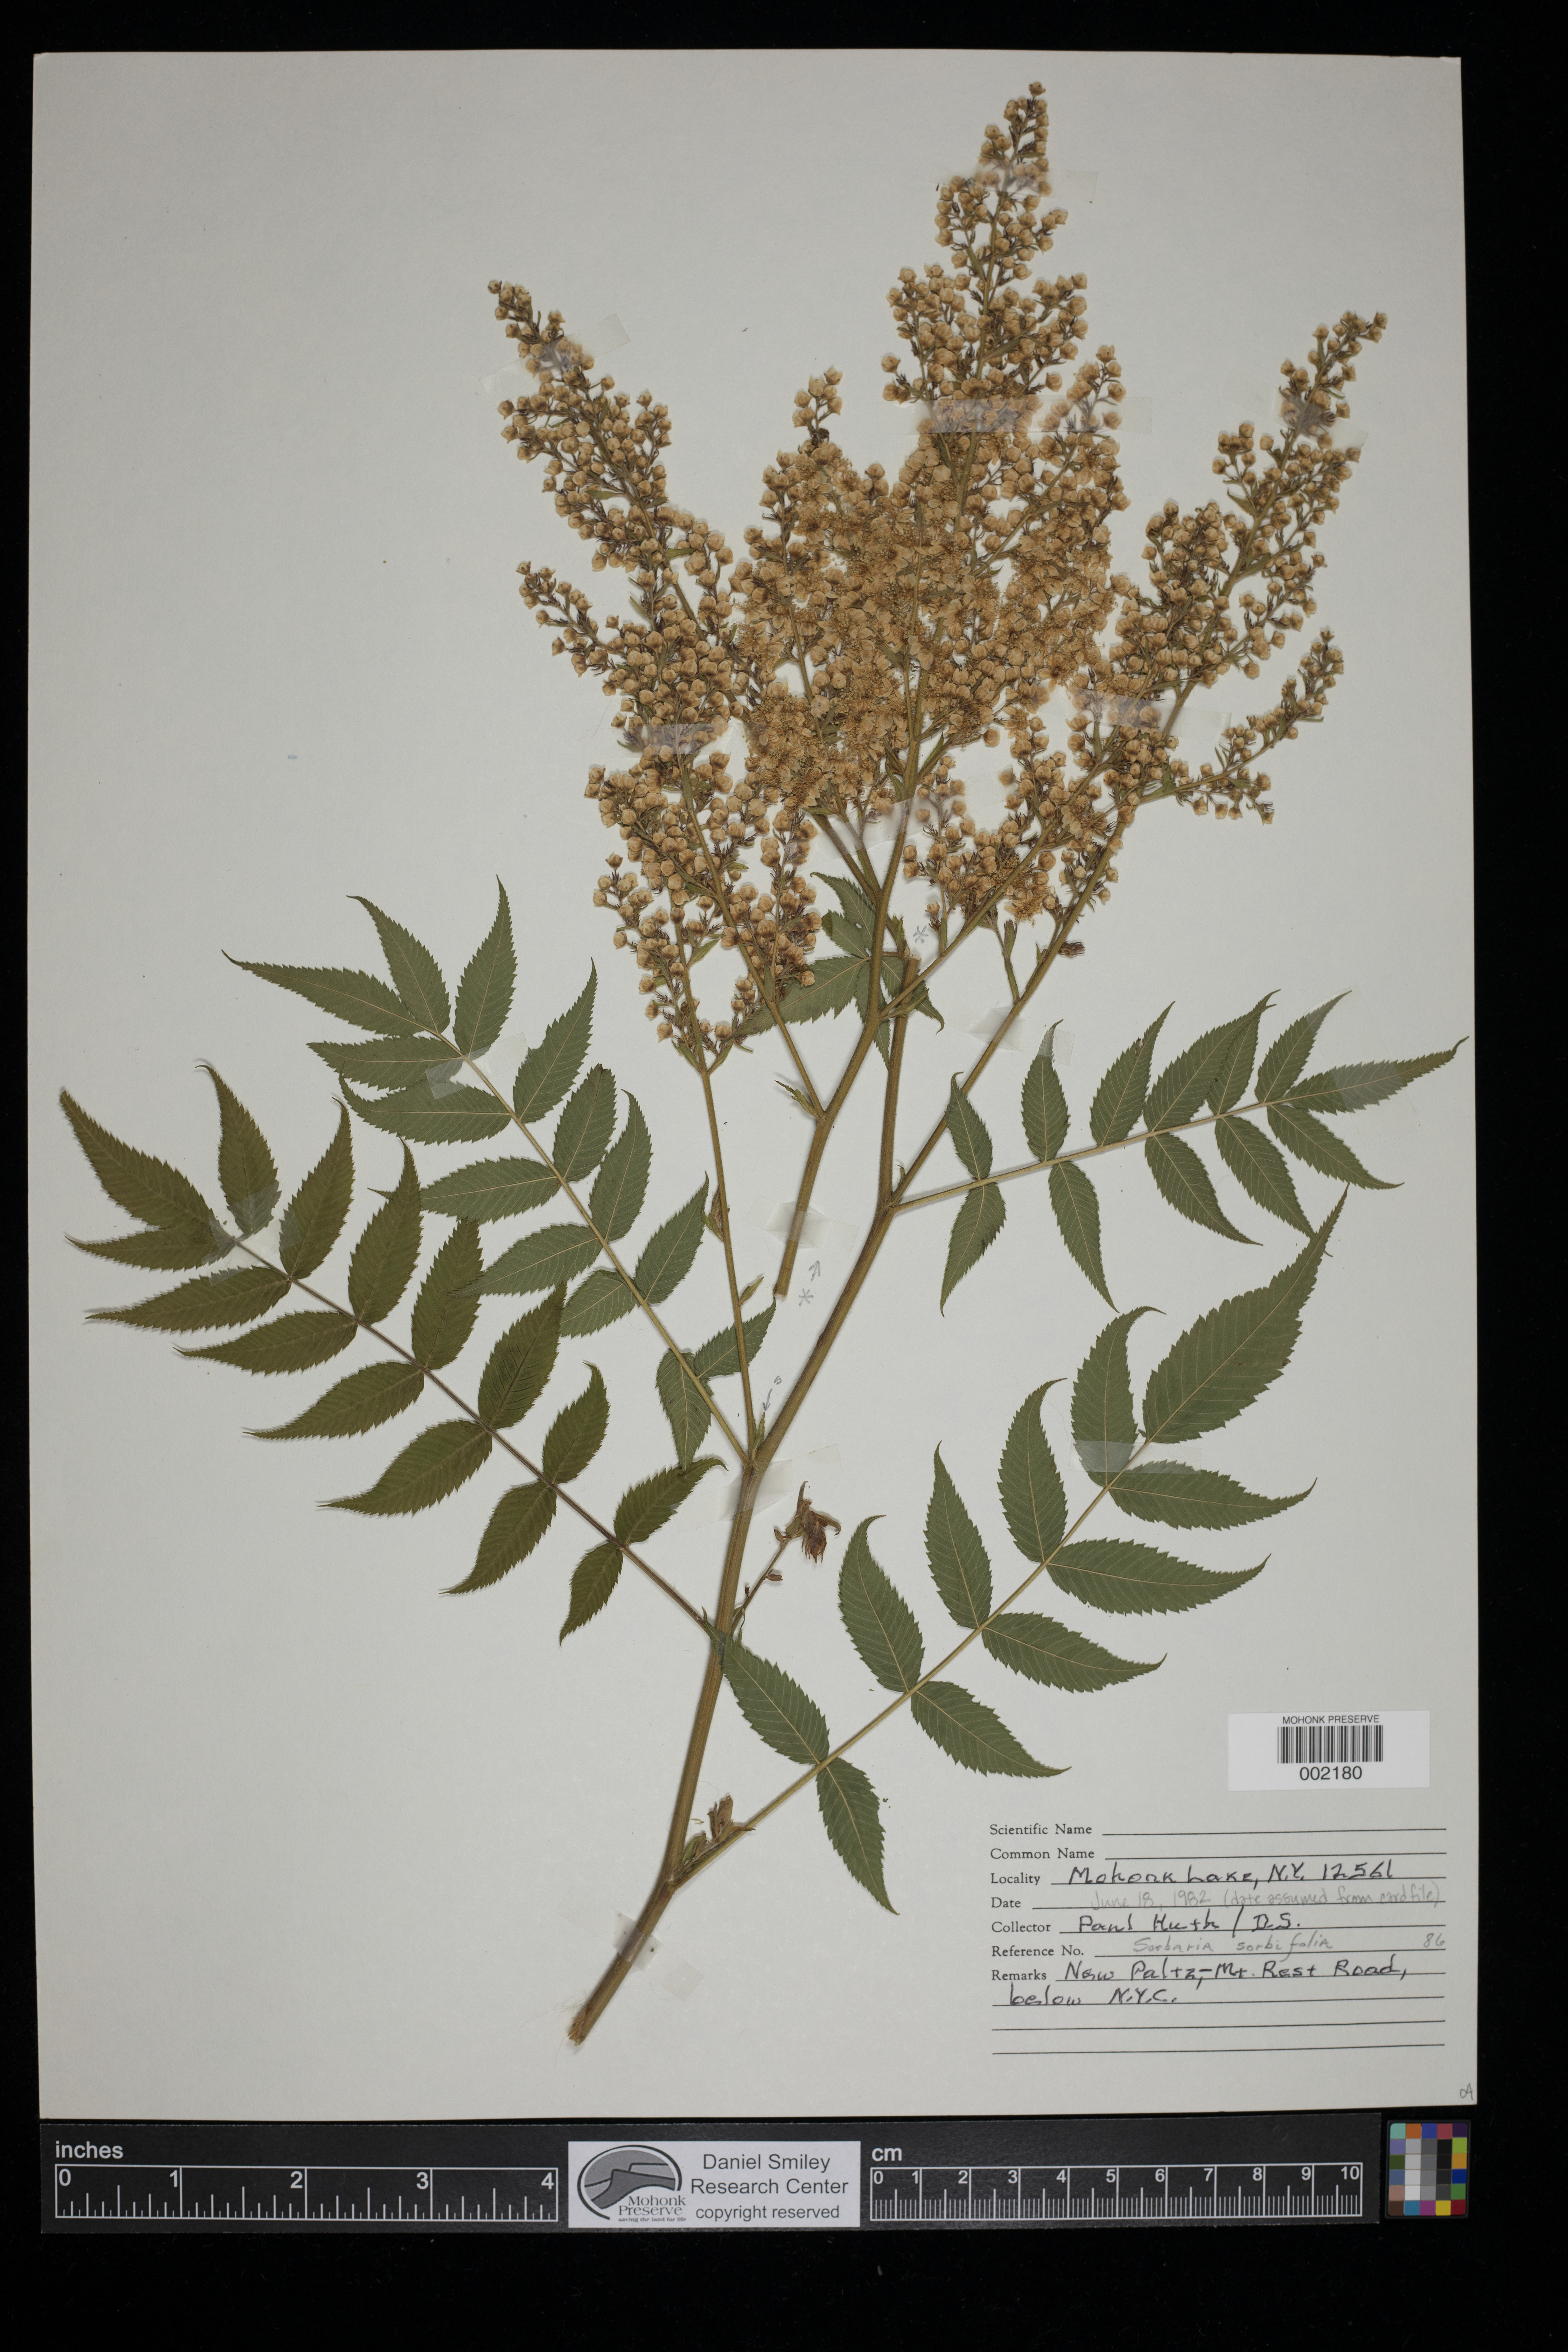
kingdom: Plantae
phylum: Tracheophyta
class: Magnoliopsida
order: Rosales
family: Rosaceae
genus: Sorbaria
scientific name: Sorbaria sorbifolia
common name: False spiraea
